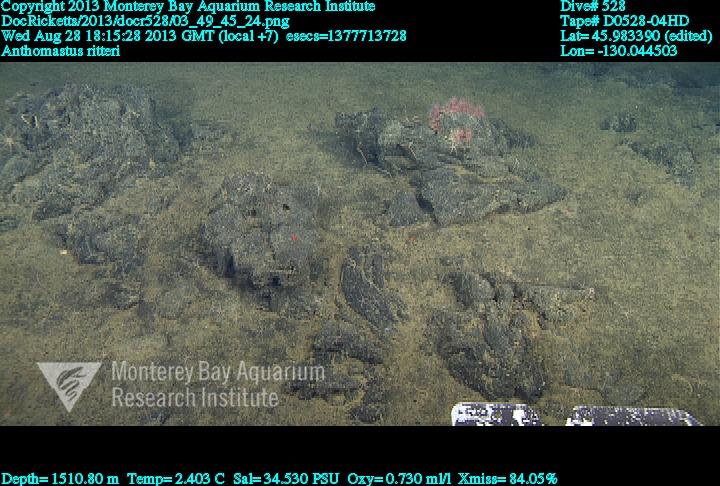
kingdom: Animalia
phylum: Cnidaria
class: Anthozoa
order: Scleralcyonacea
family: Coralliidae
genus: Heteropolypus
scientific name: Heteropolypus ritteri
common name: Ritter's soft coral
